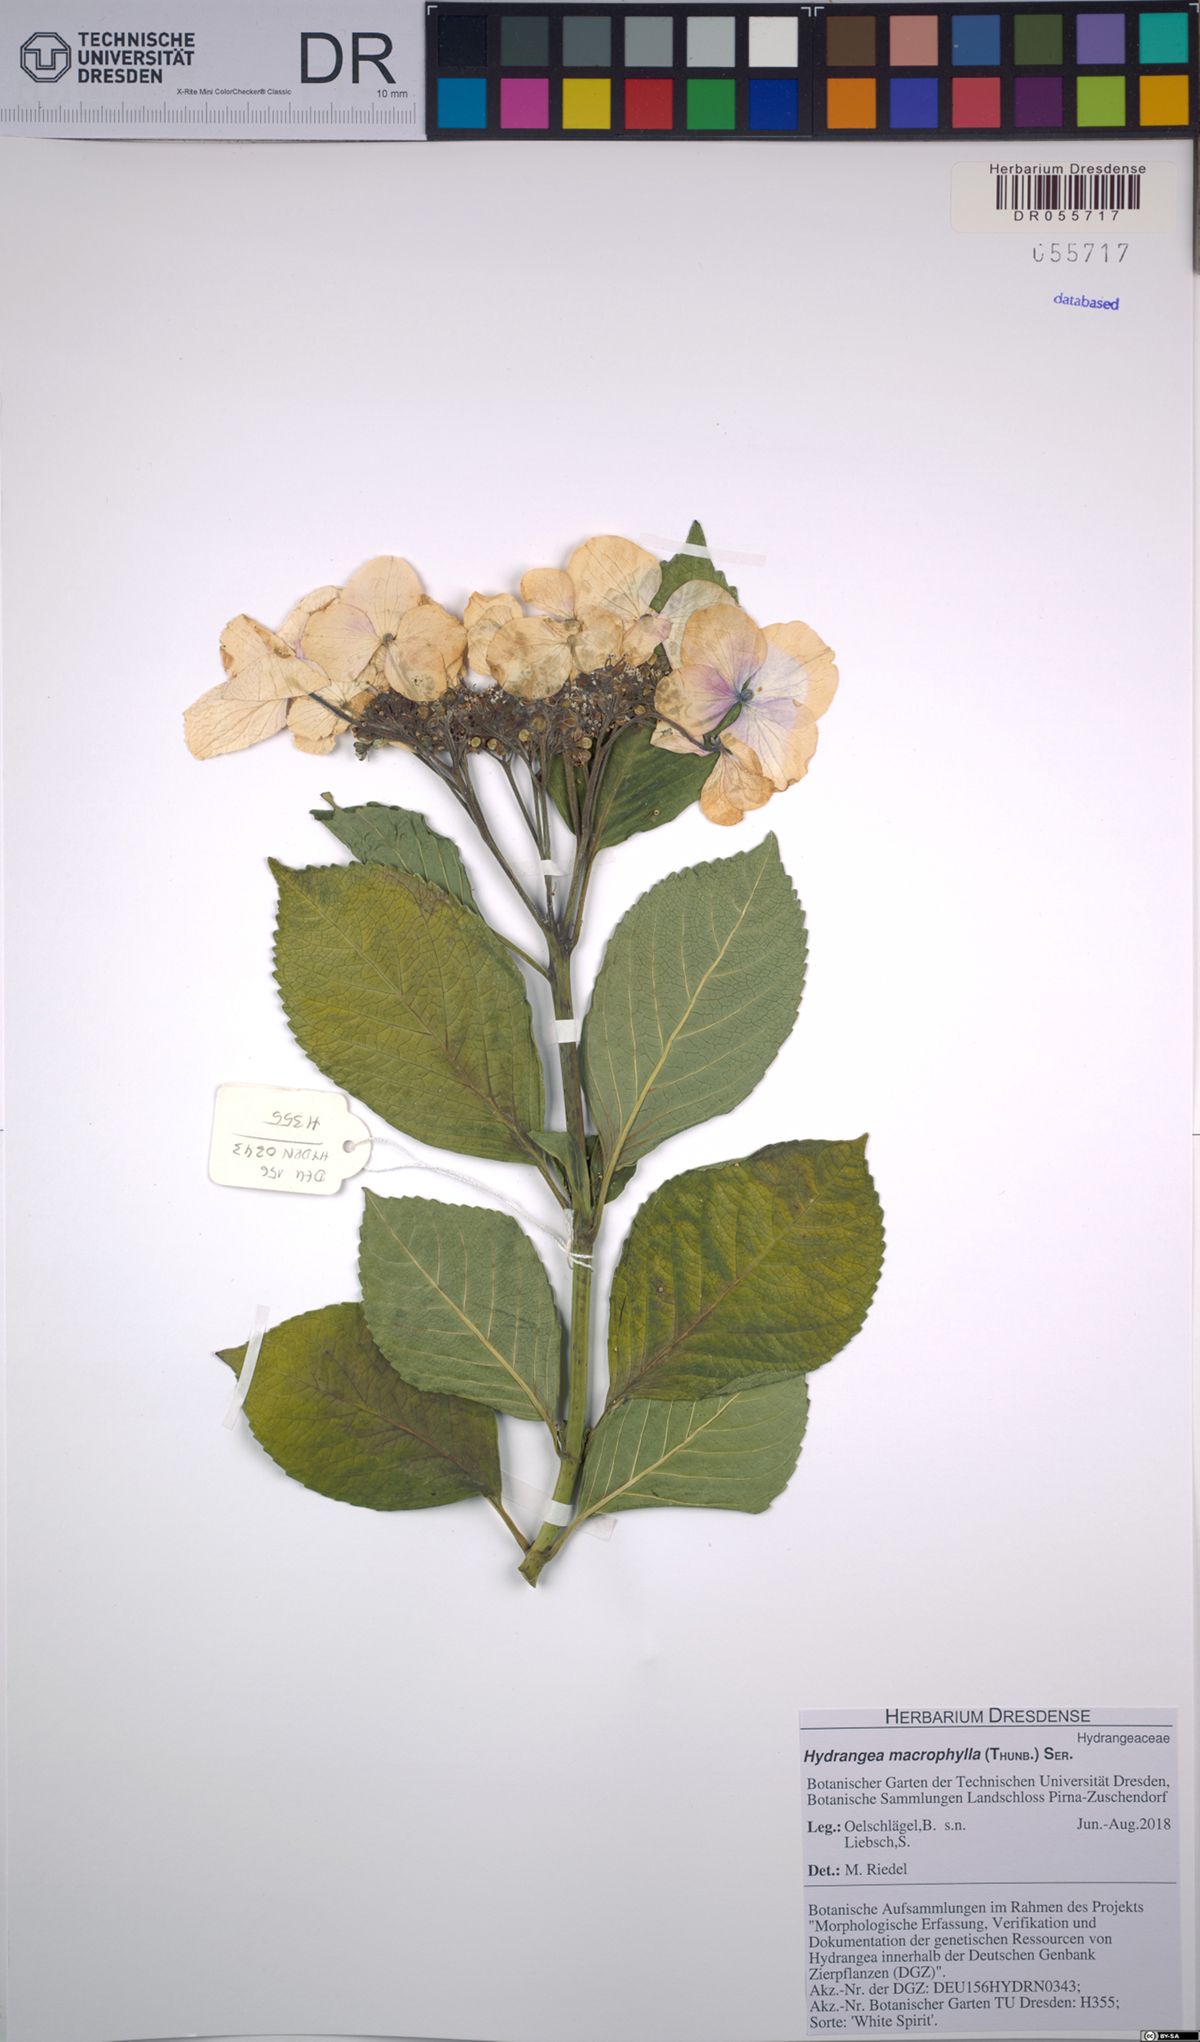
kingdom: Plantae
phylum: Tracheophyta
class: Magnoliopsida
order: Cornales
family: Hydrangeaceae
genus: Hydrangea
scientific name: Hydrangea macrophylla
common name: Hydrangea
